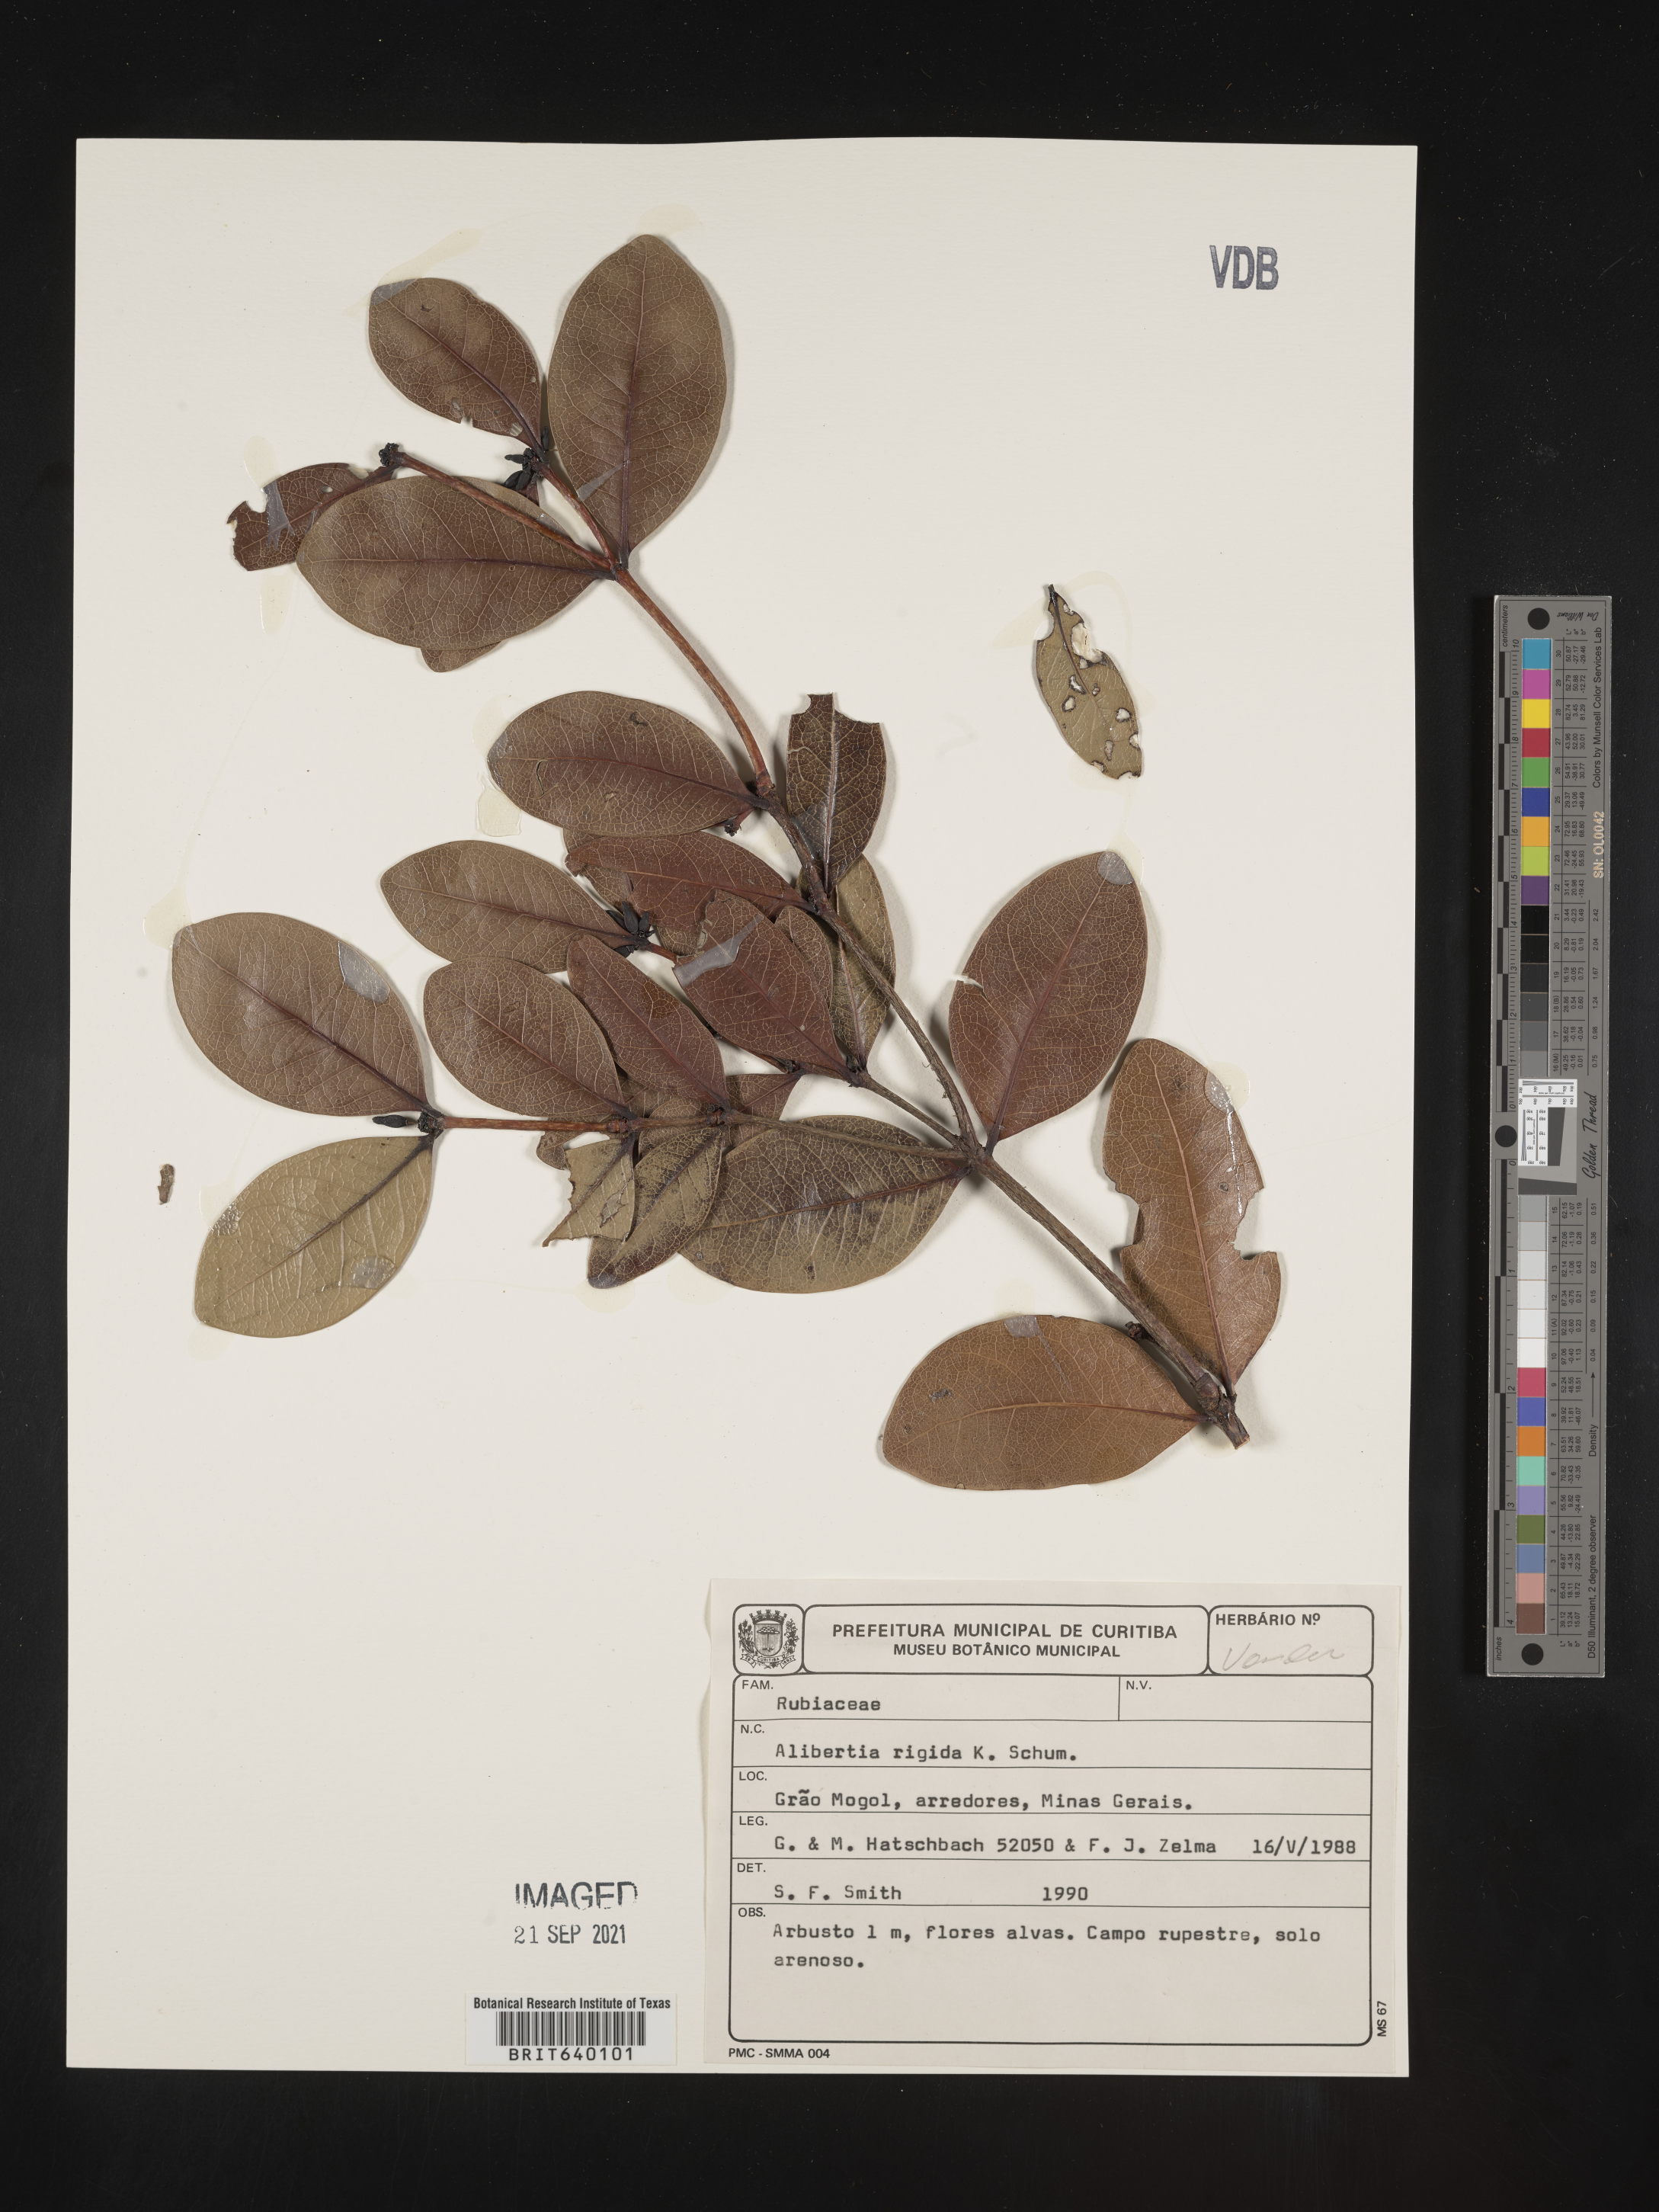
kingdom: Plantae
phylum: Tracheophyta
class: Magnoliopsida
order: Gentianales
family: Rubiaceae
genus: Alibertia
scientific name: Alibertia
